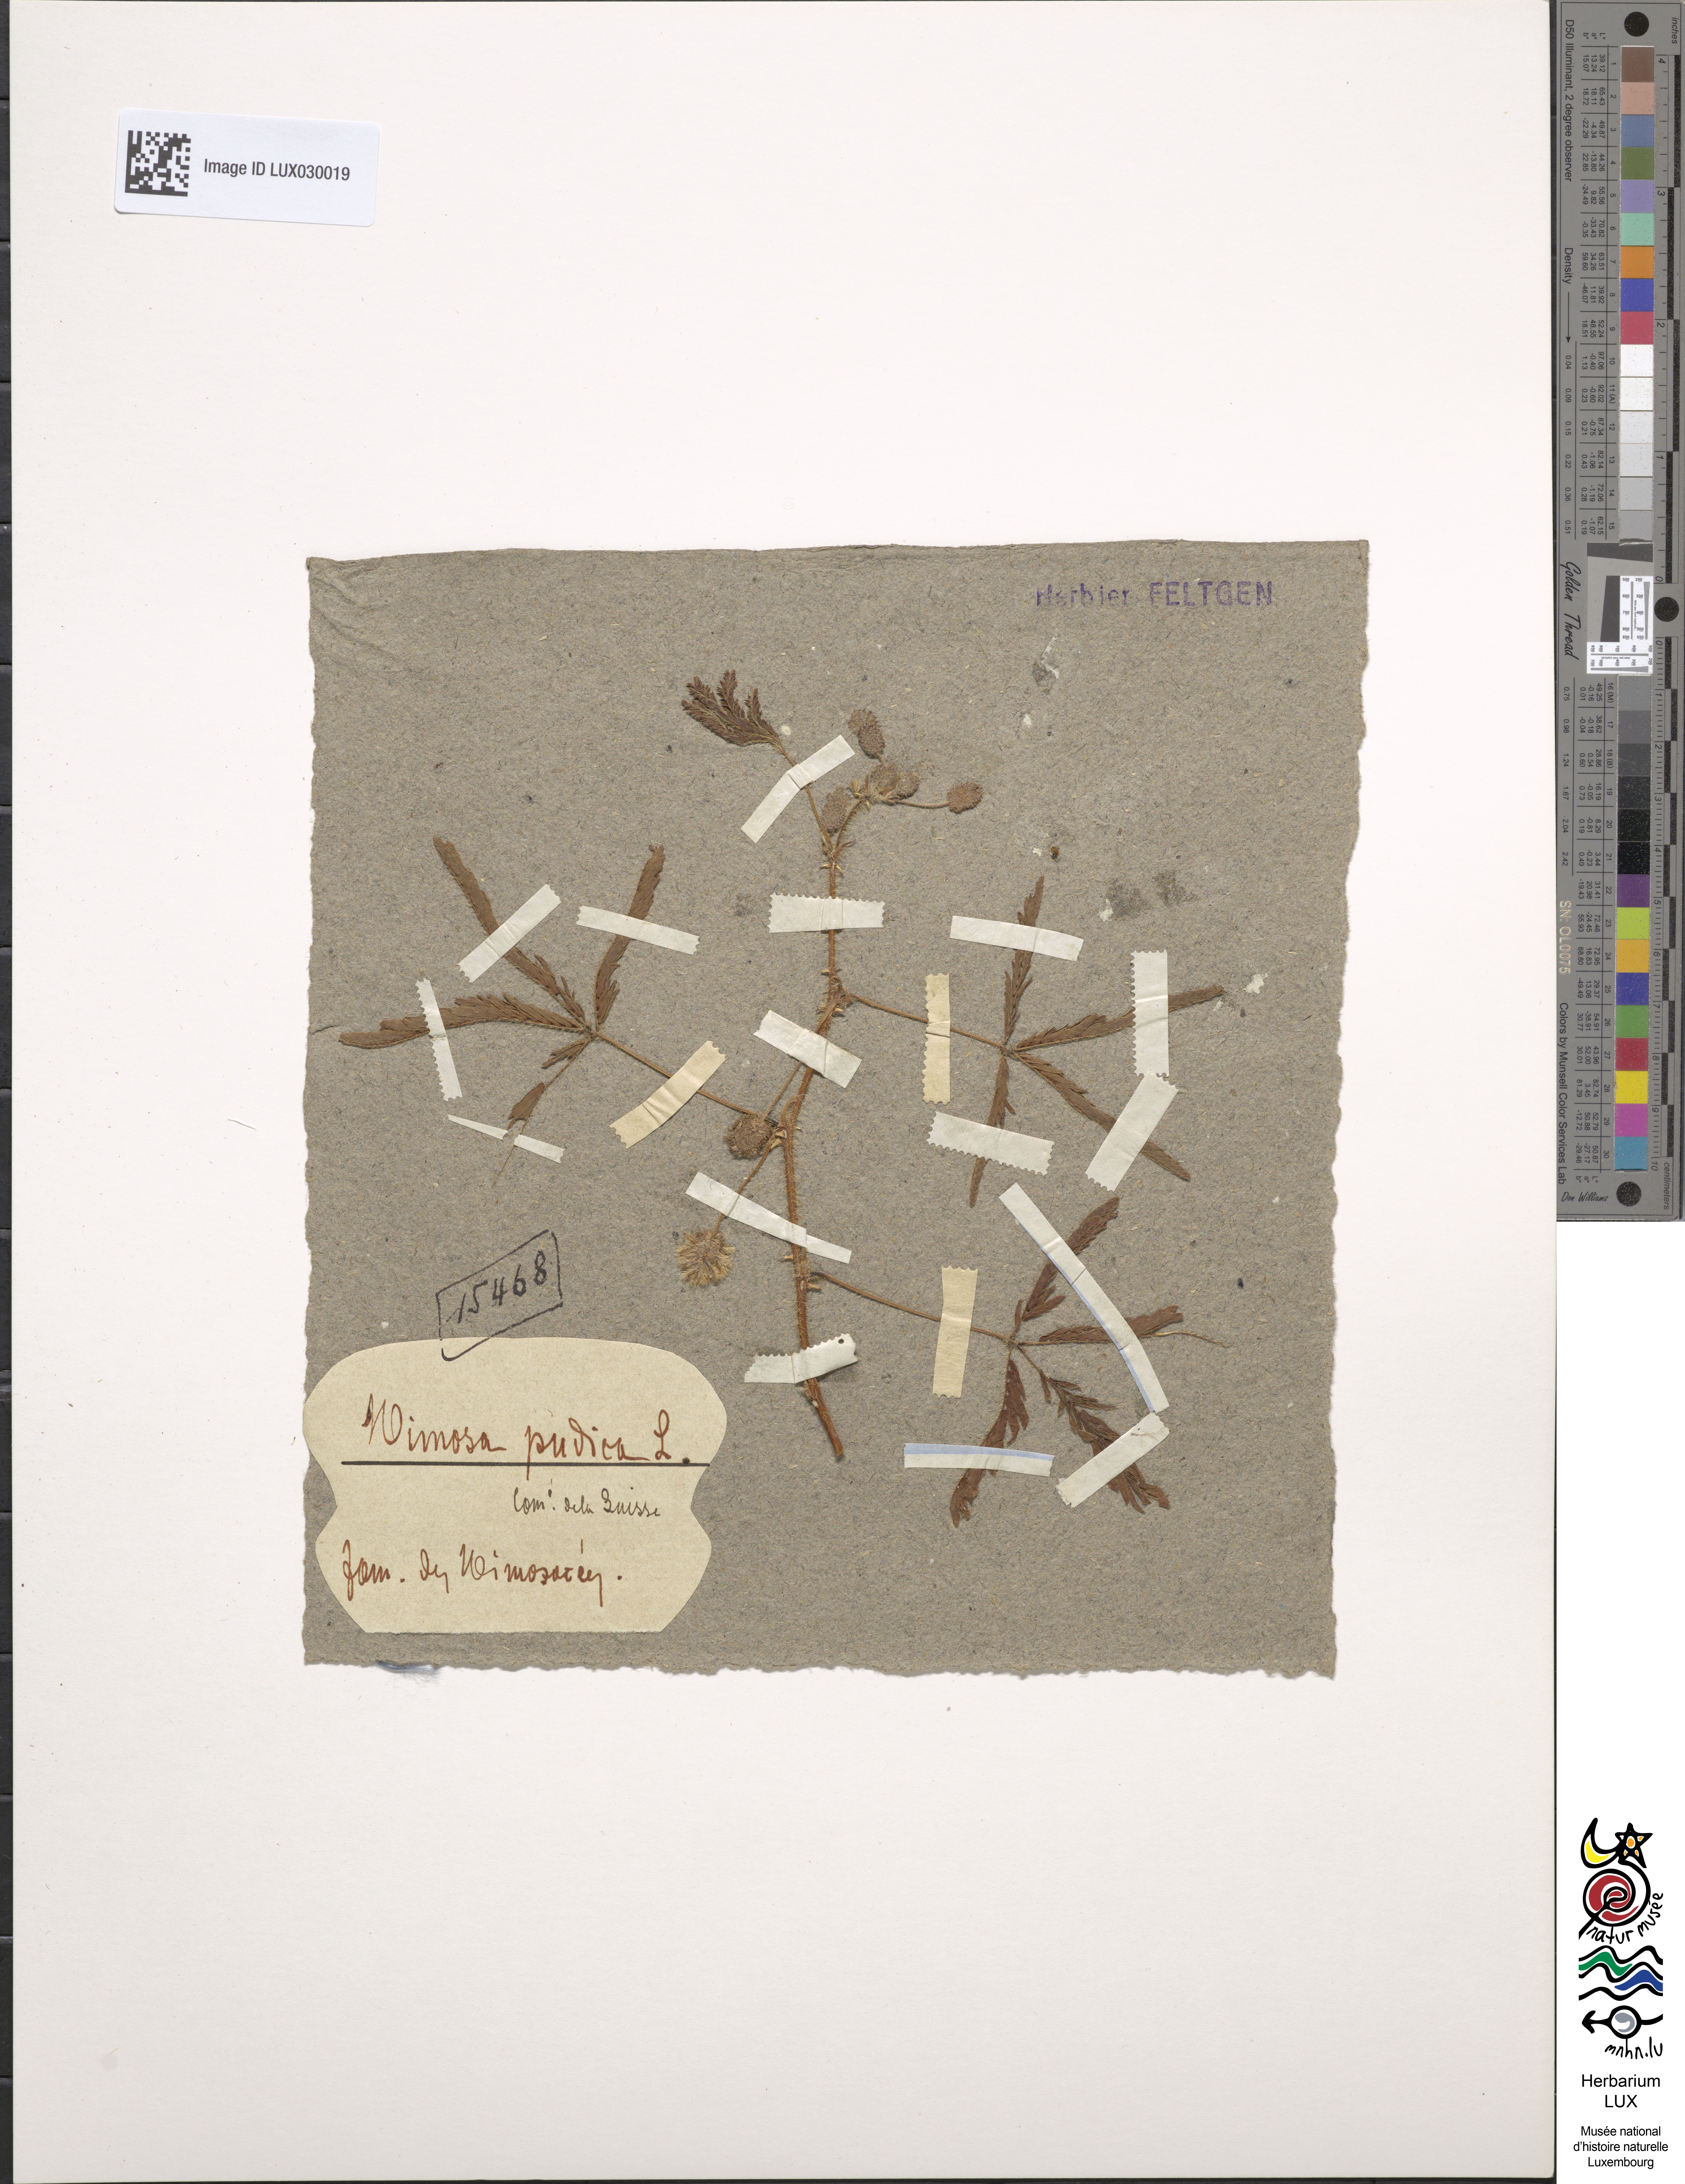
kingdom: Plantae
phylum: Tracheophyta
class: Magnoliopsida
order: Fabales
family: Fabaceae
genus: Mimosa
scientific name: Mimosa pudica
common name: Sensitive plant
